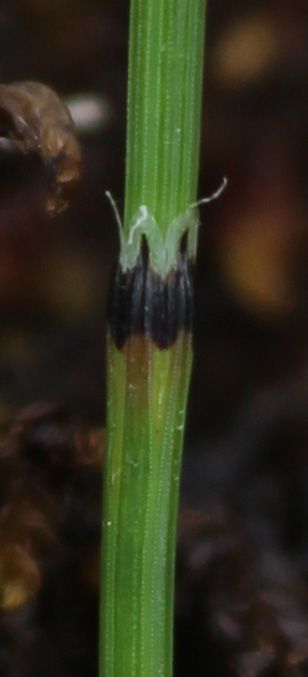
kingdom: Plantae
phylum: Tracheophyta
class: Polypodiopsida
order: Equisetales
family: Equisetaceae
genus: Equisetum
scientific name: Equisetum variegatum
